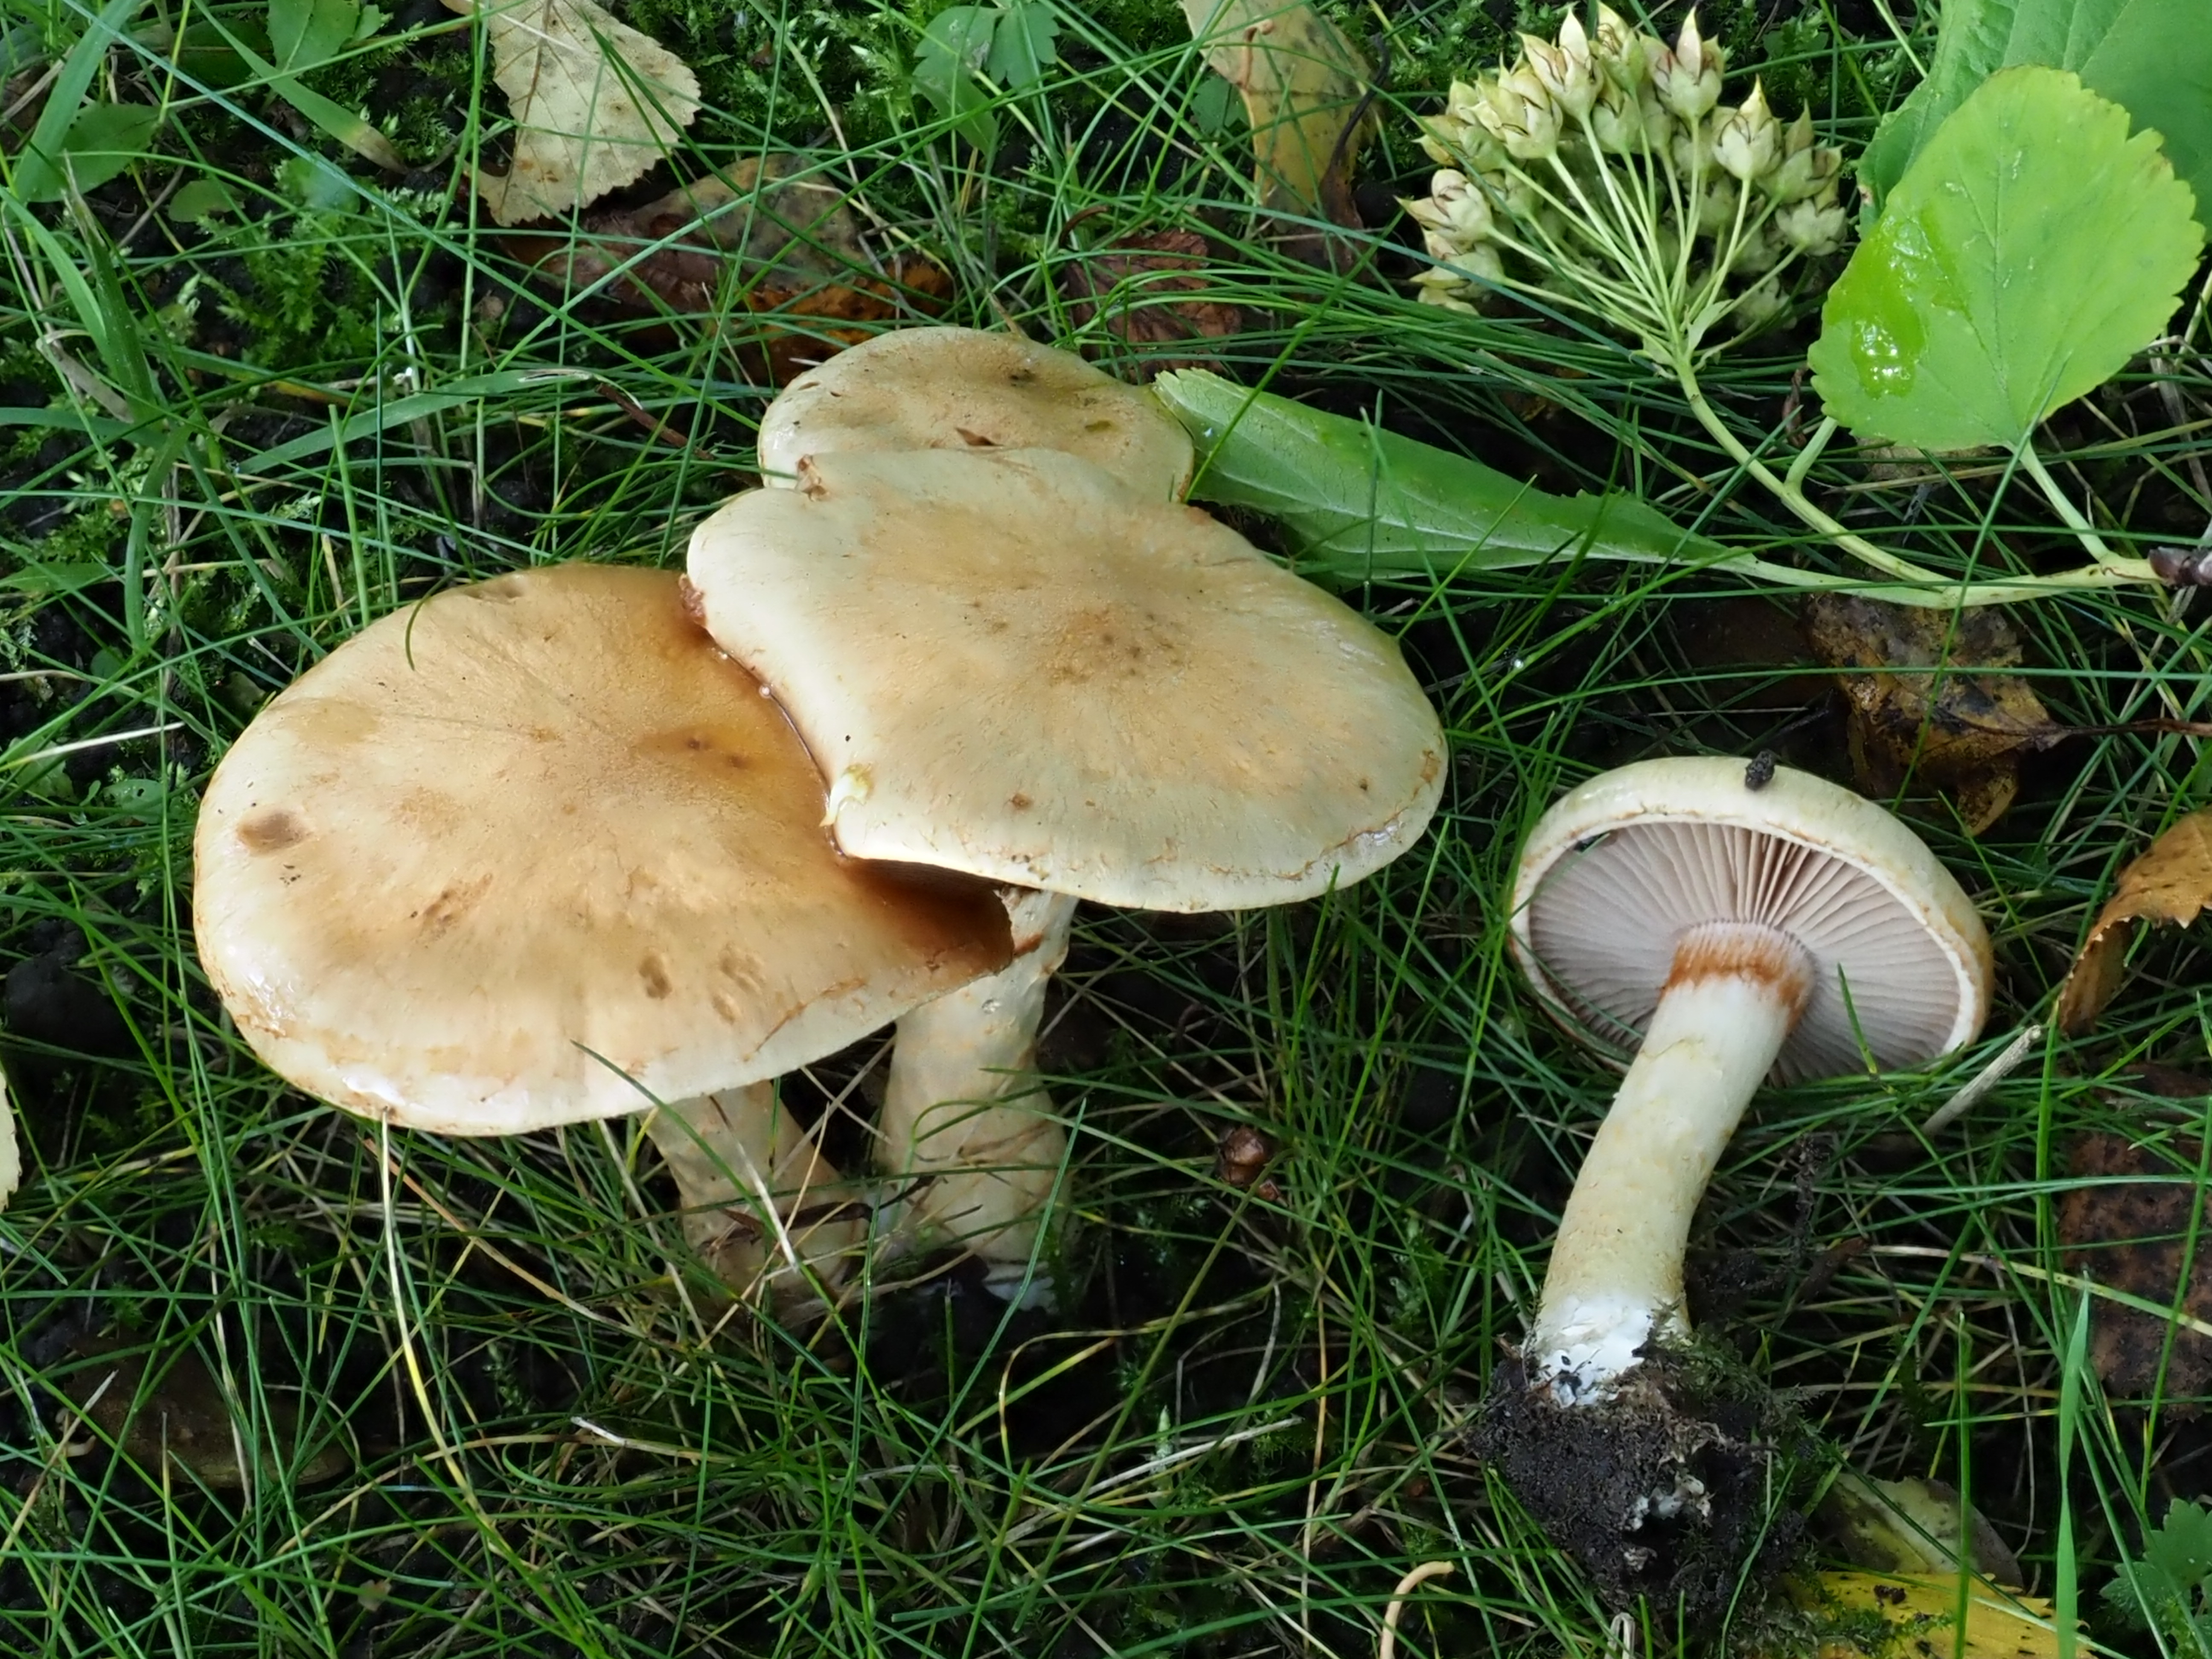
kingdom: Fungi
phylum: Basidiomycota
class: Agaricomycetes
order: Agaricales
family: Cortinariaceae
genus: Cortinarius
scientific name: Cortinarius xanthocephalus
